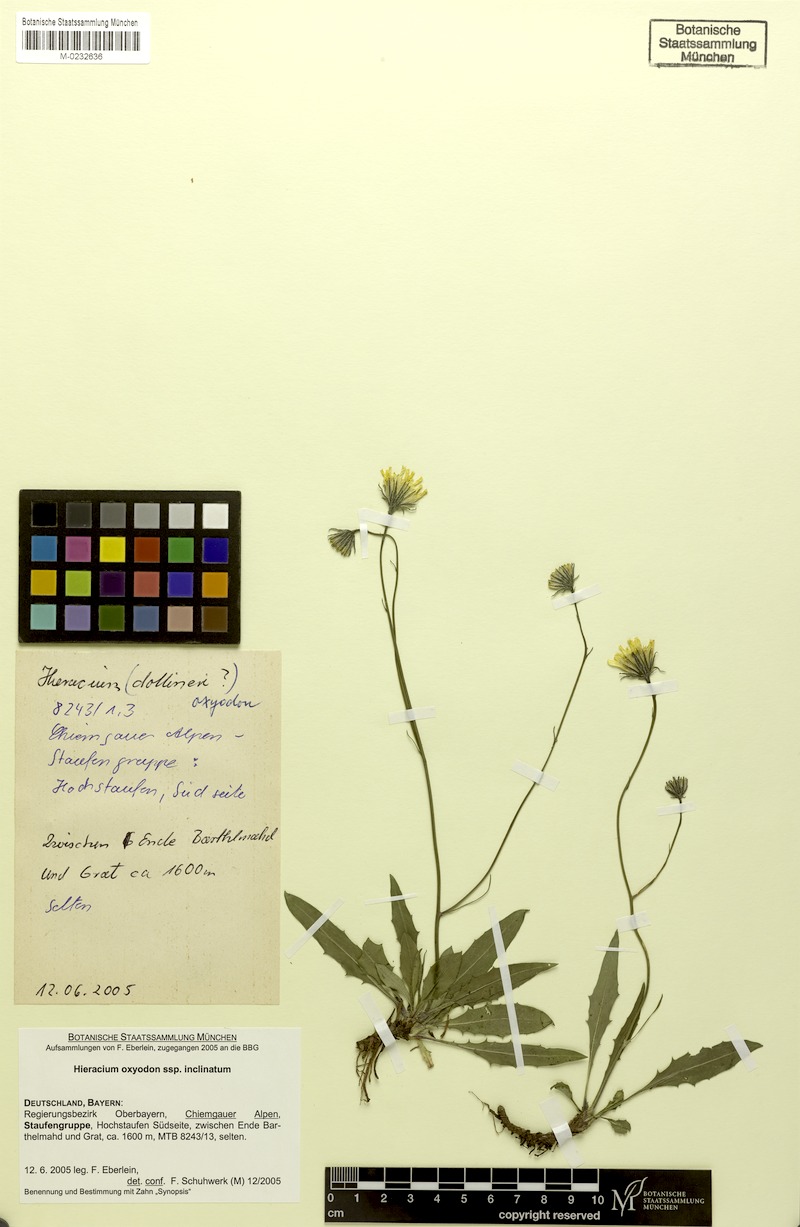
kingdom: Plantae
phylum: Tracheophyta
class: Magnoliopsida
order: Asterales
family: Asteraceae
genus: Hieracium
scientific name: Hieracium oxyodon
